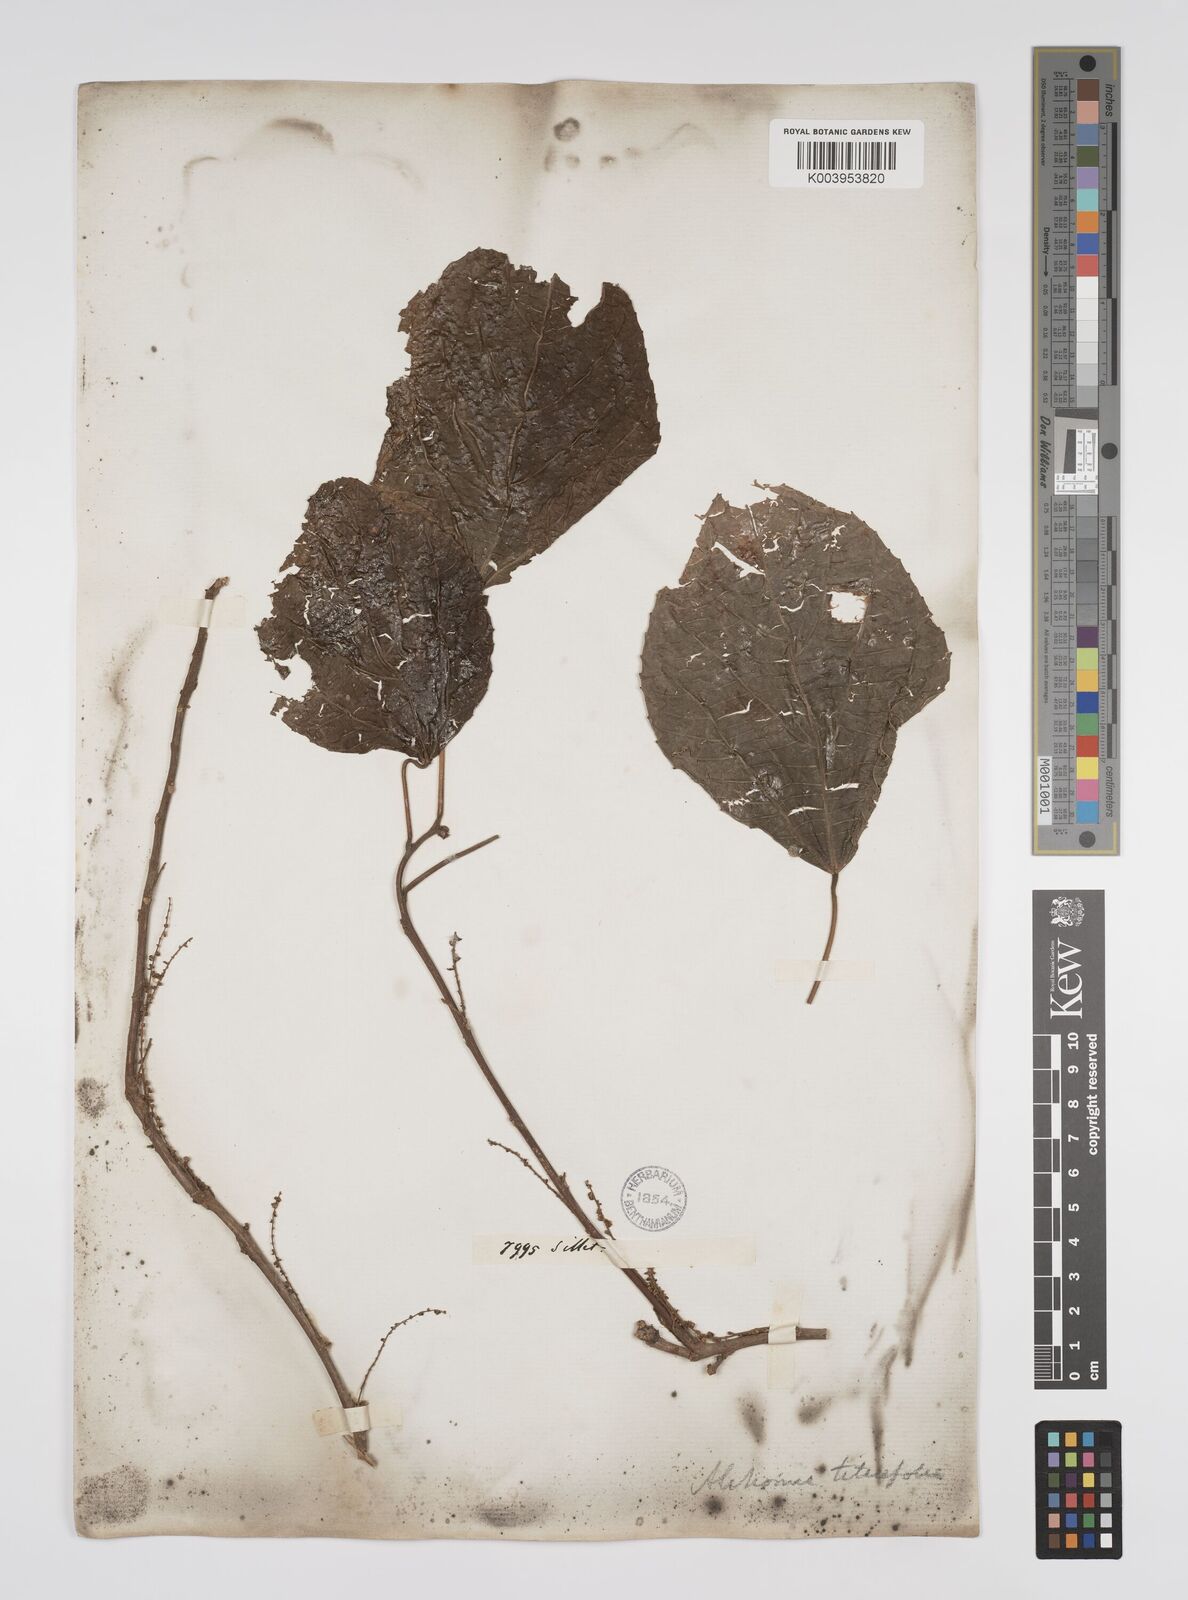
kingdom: Plantae
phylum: Tracheophyta
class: Magnoliopsida
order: Malpighiales
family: Euphorbiaceae
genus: Alchornea
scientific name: Alchornea tiliifolia
